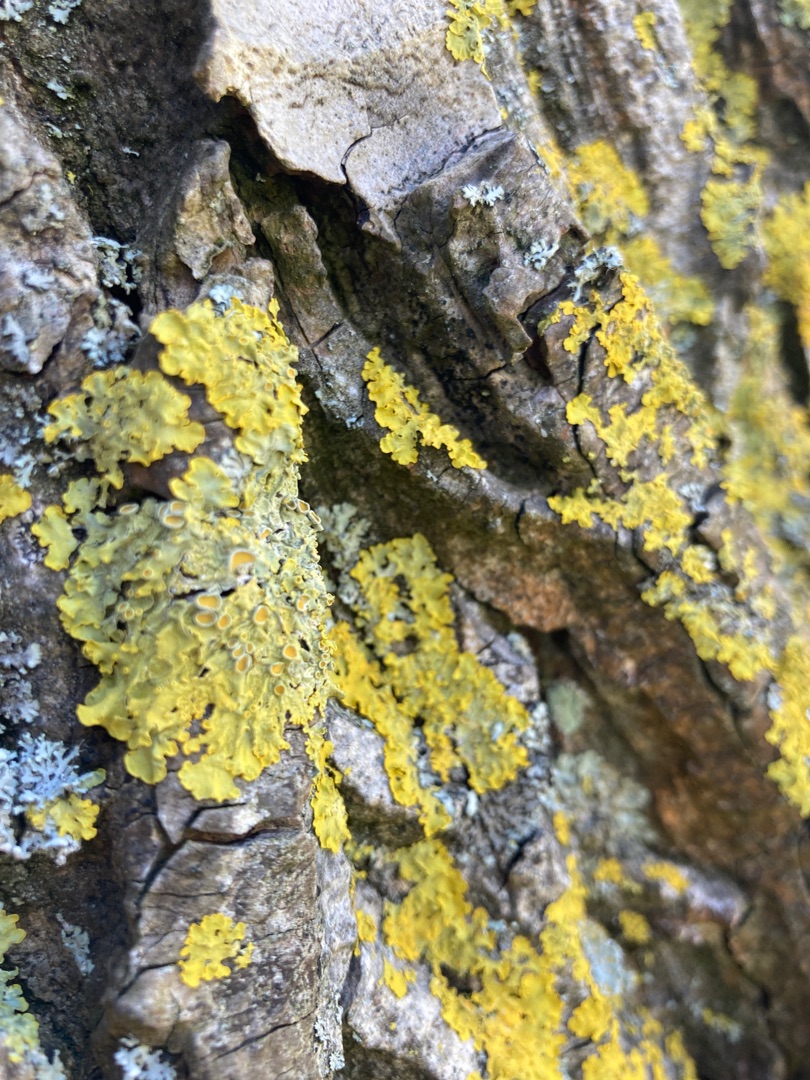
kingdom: Fungi
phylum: Ascomycota
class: Lecanoromycetes
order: Teloschistales
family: Teloschistaceae
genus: Xanthoria
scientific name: Xanthoria parietina
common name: Almindelig væggelav
